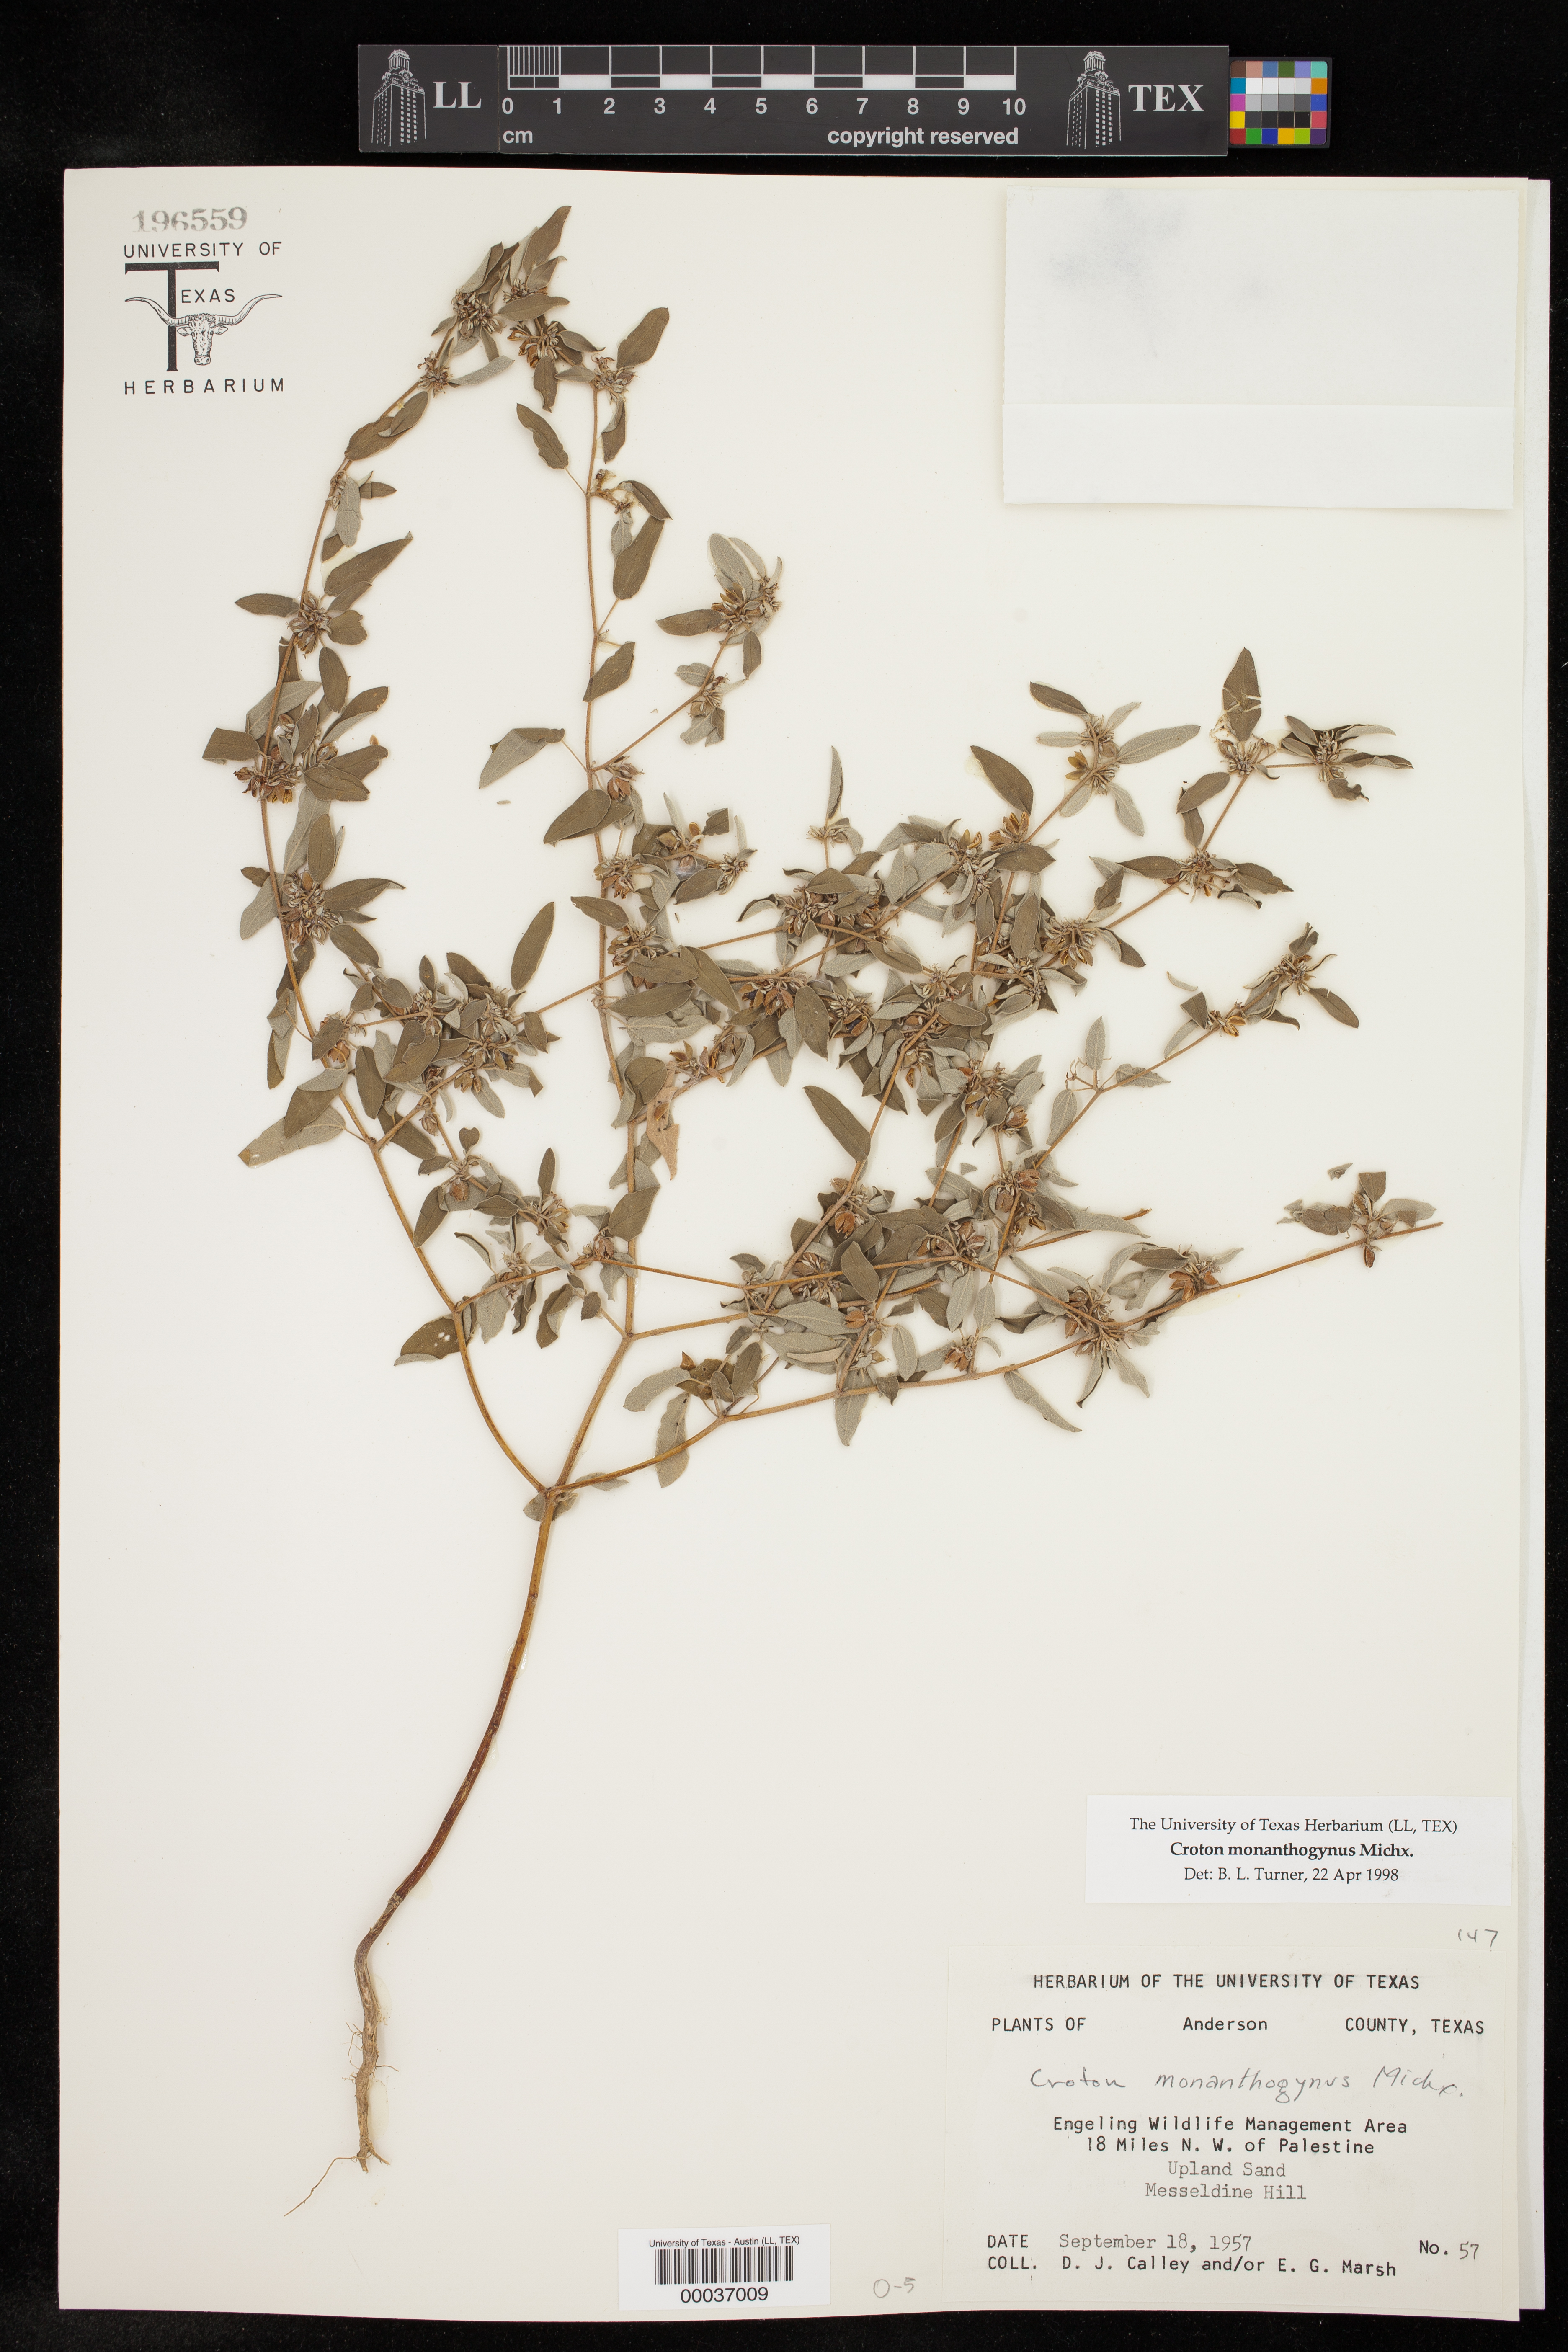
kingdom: Plantae
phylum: Tracheophyta
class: Magnoliopsida
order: Malpighiales
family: Euphorbiaceae
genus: Croton
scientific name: Croton monanthogynus
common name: One-seed croton
